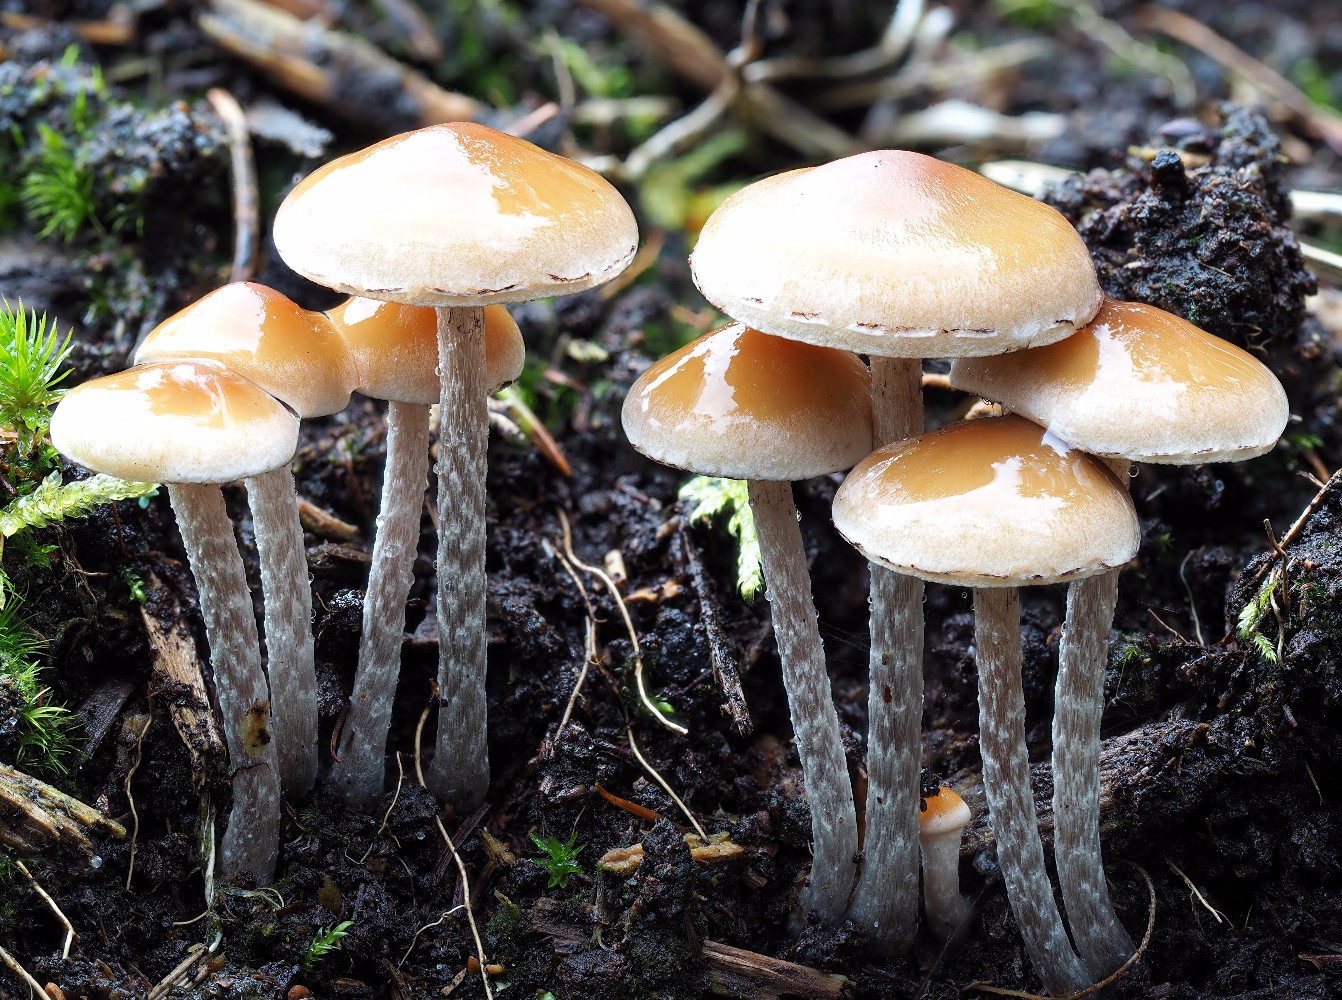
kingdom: Fungi
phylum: Basidiomycota
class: Agaricomycetes
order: Agaricales
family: Strophariaceae
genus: Hypholoma
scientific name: Hypholoma marginatum
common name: enlig svovlhat
